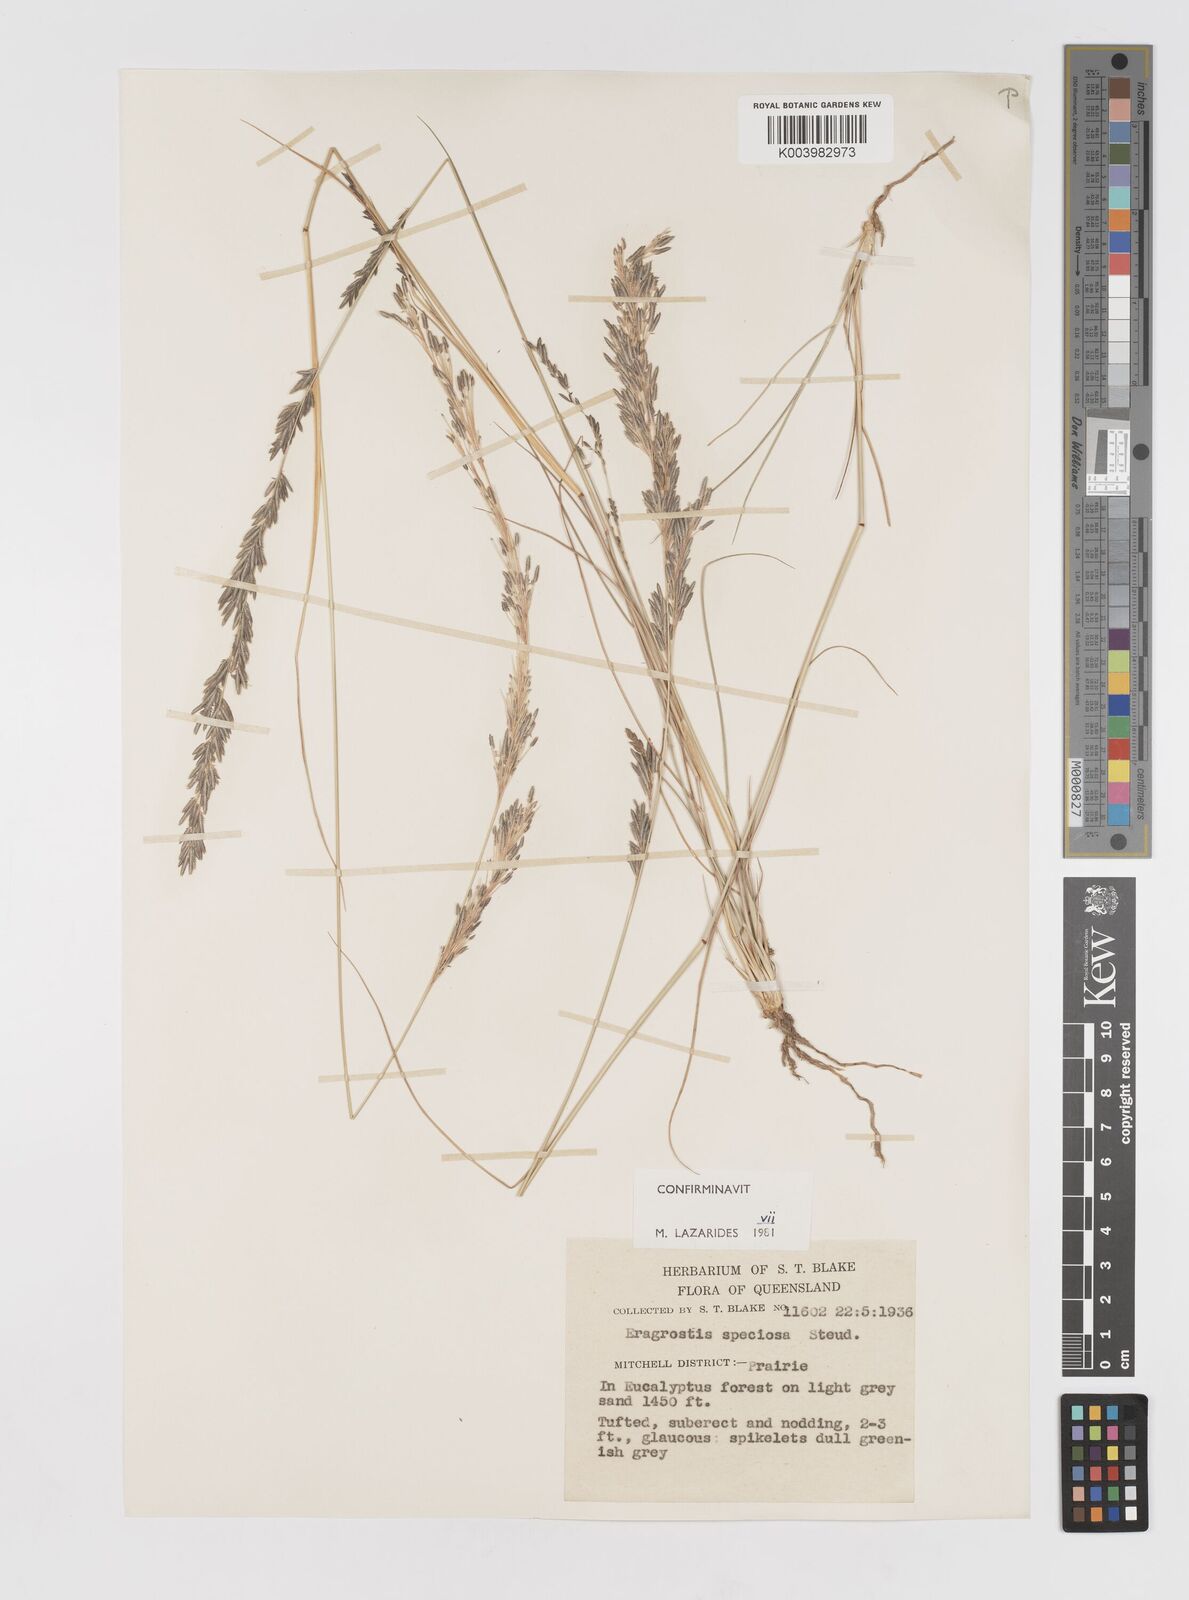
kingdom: Plantae
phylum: Tracheophyta
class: Liliopsida
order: Poales
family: Poaceae
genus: Eragrostis
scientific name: Eragrostis speciosa
